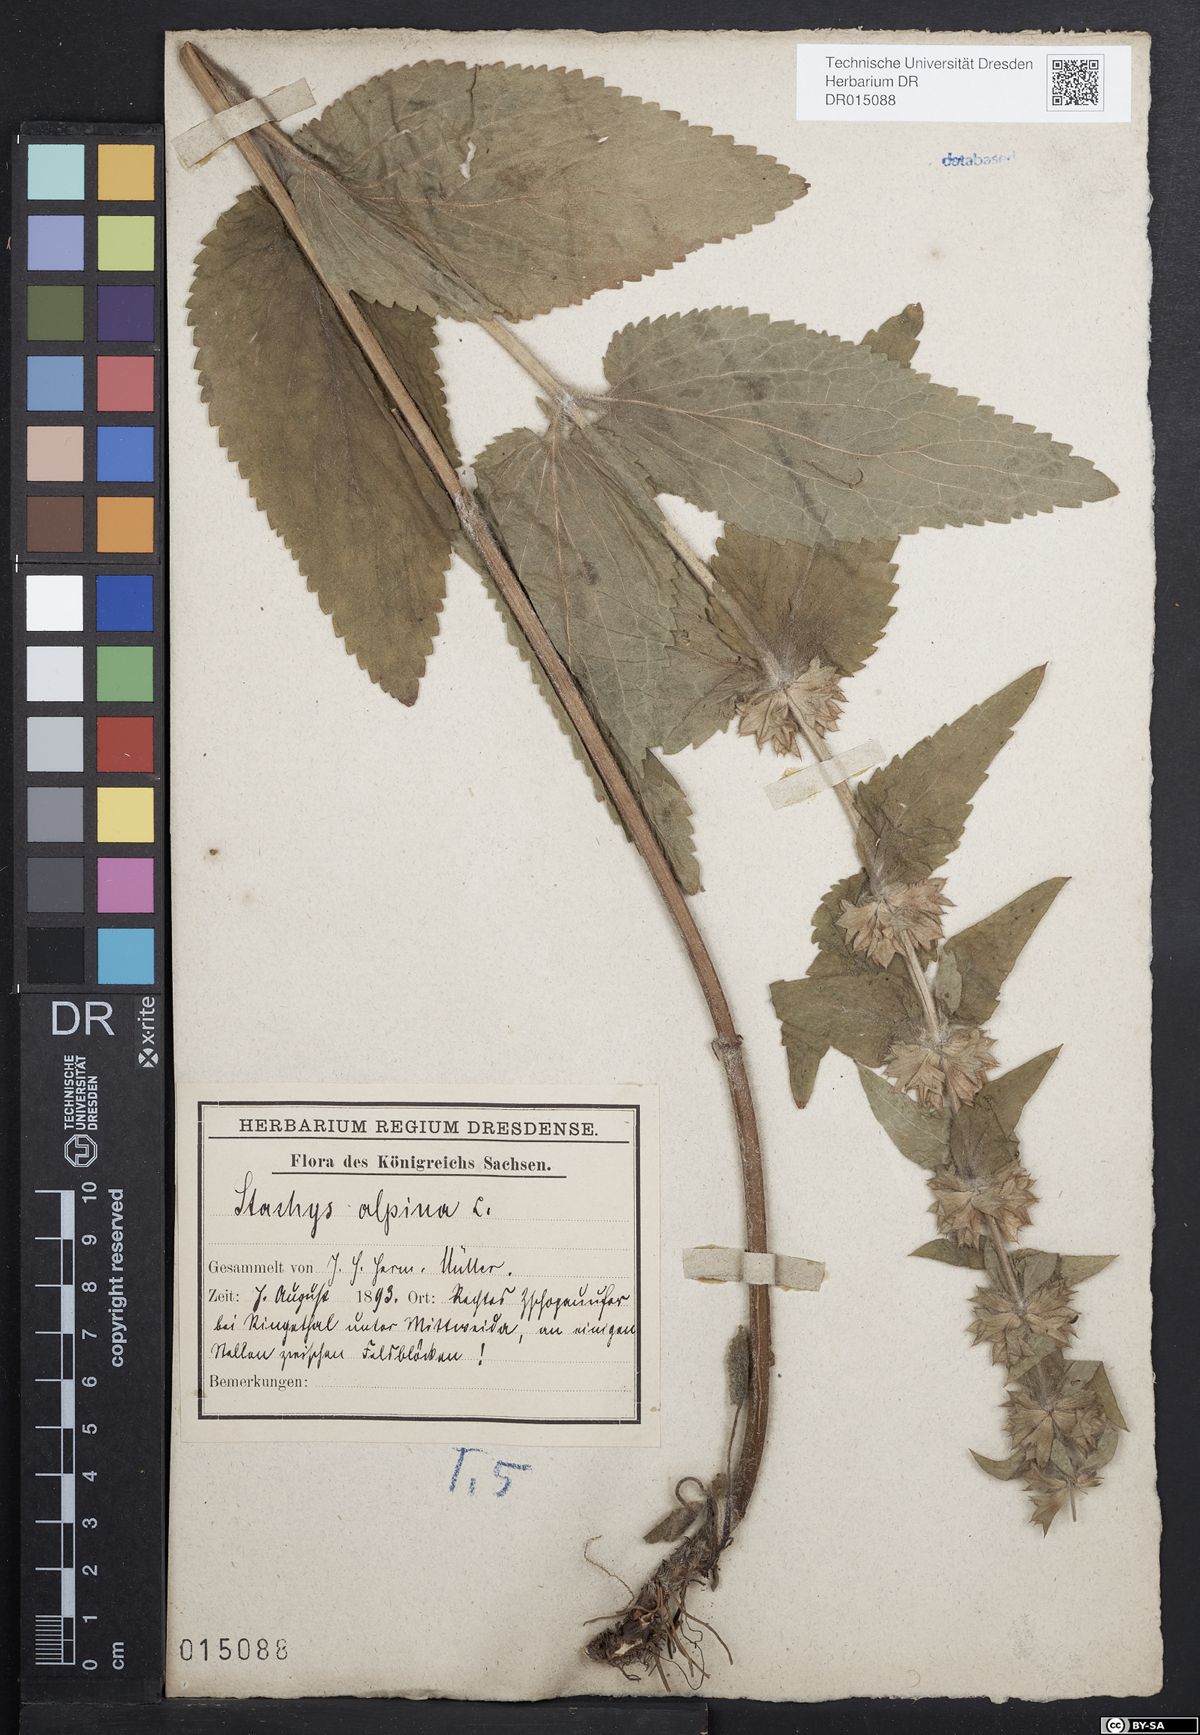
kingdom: Plantae
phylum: Tracheophyta
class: Magnoliopsida
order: Lamiales
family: Lamiaceae
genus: Stachys
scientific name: Stachys alpina
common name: Limestone woundwort
